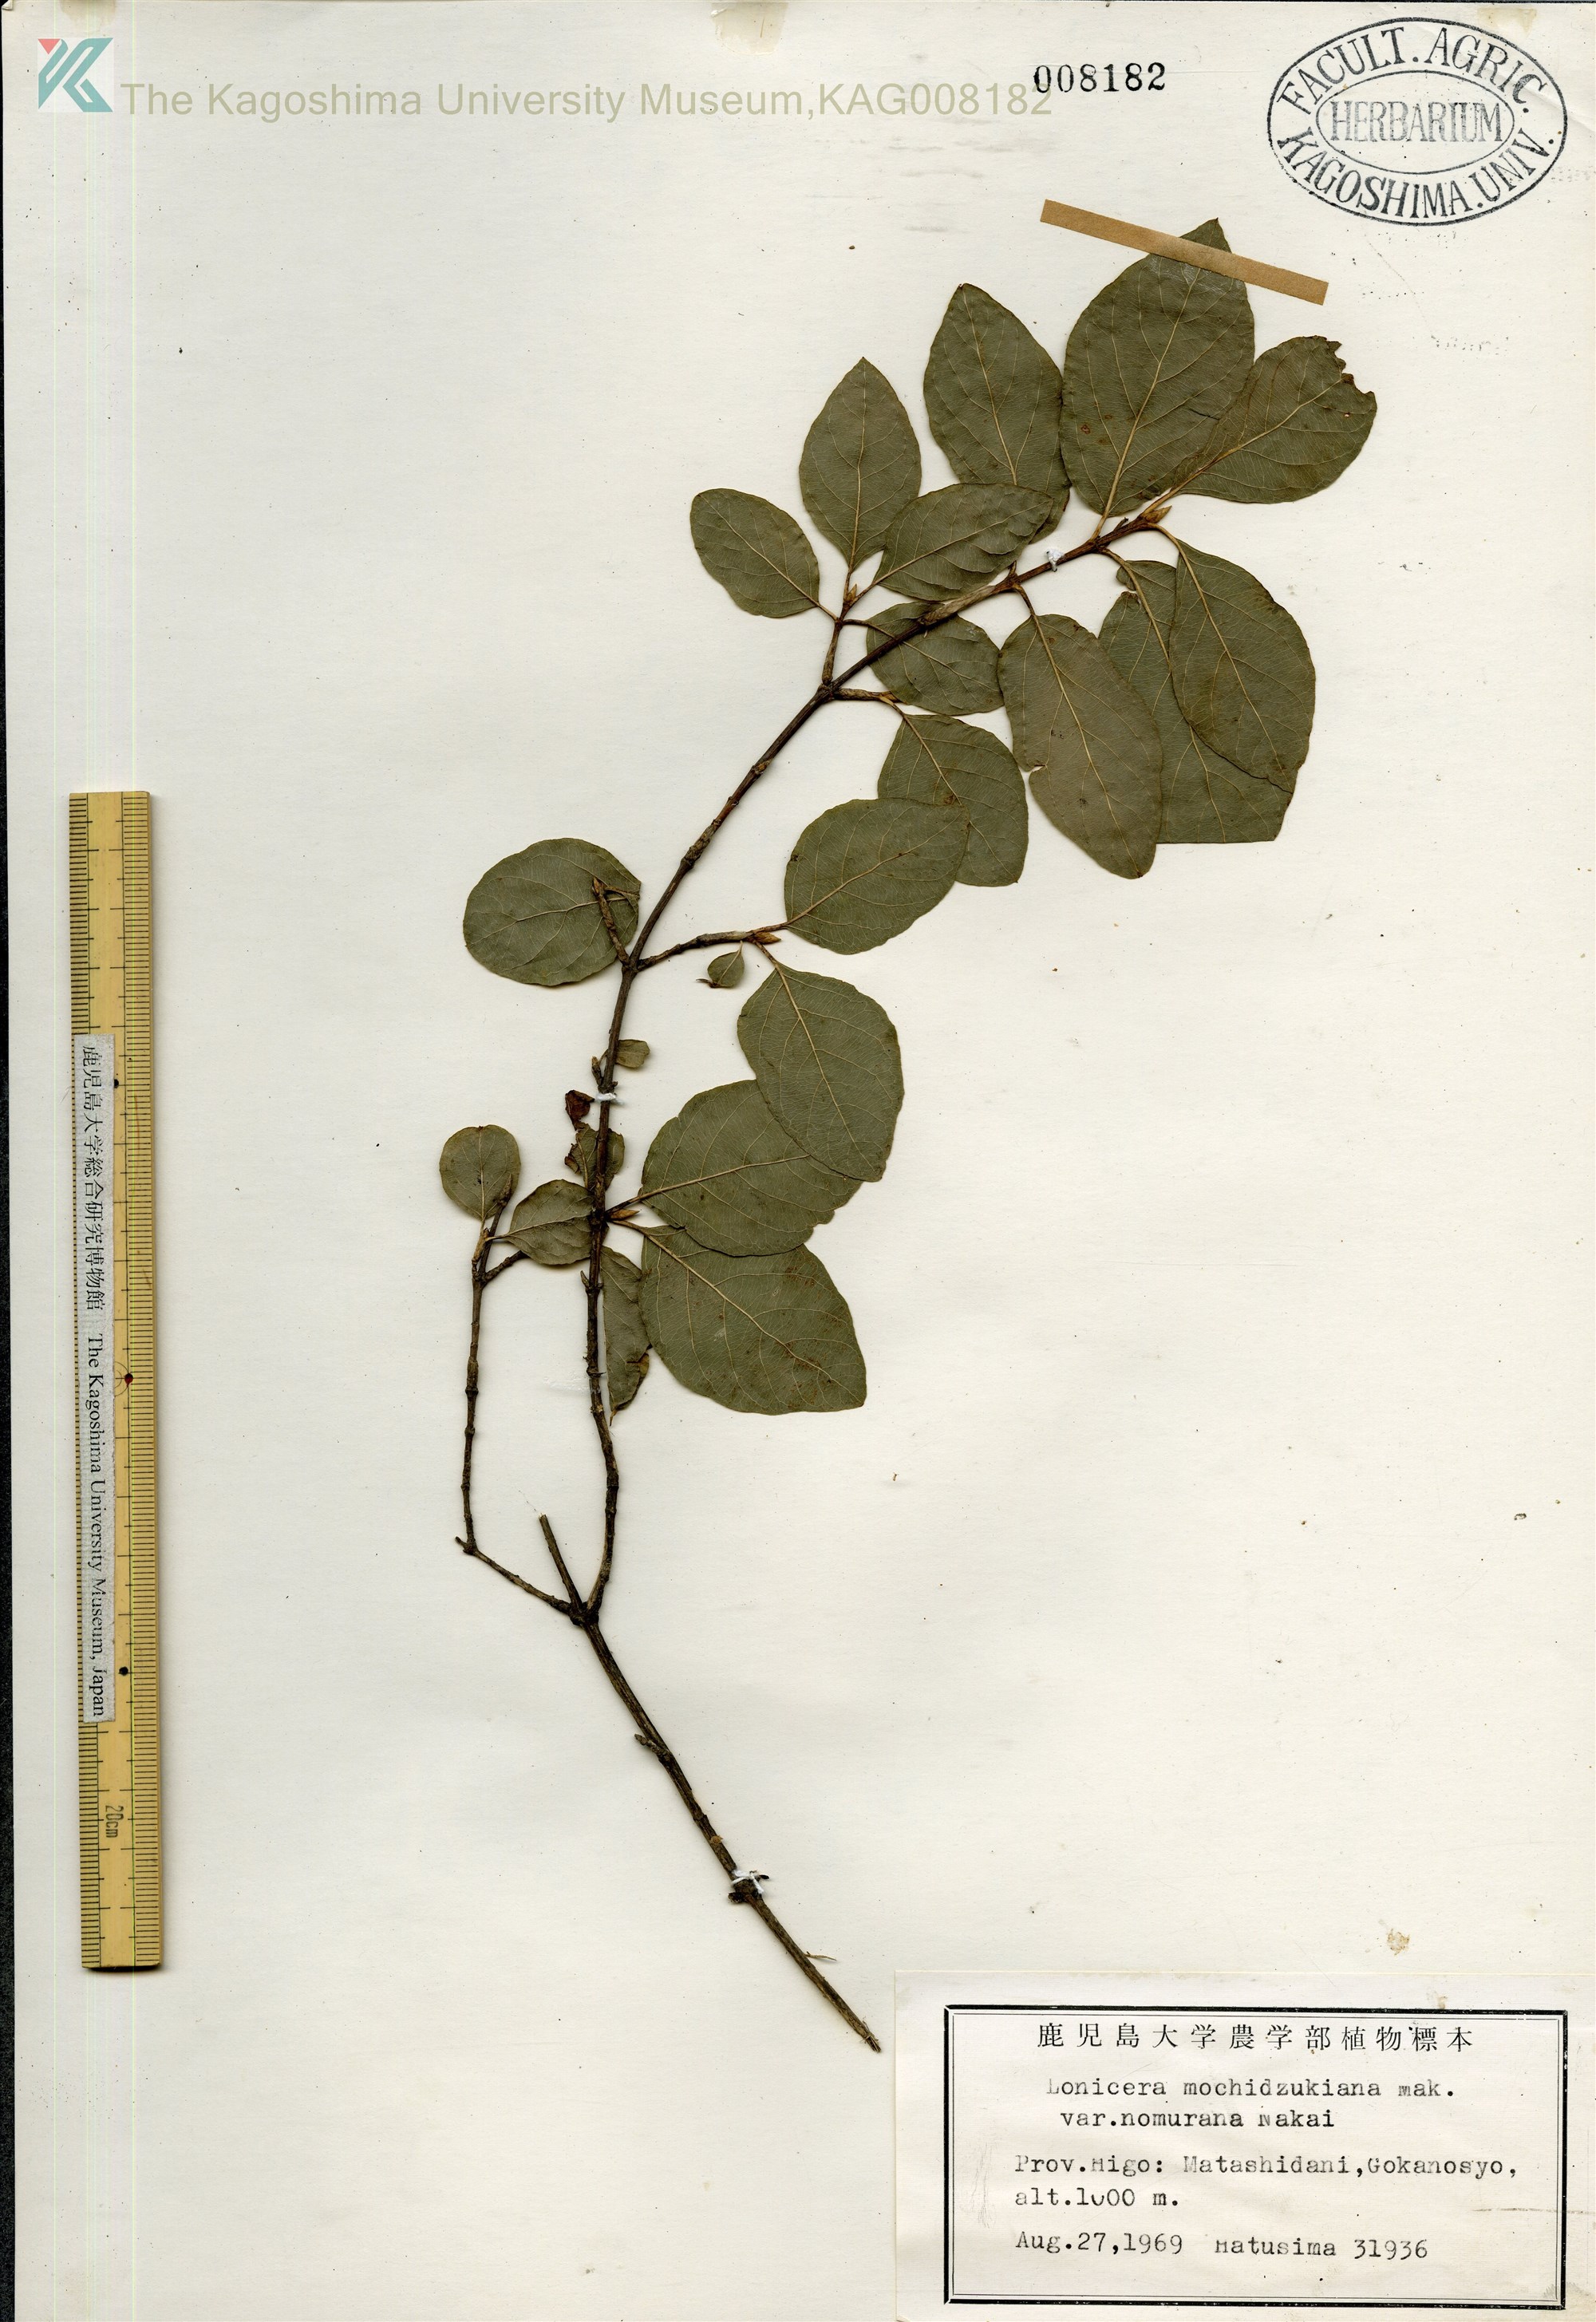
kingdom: Plantae
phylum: Tracheophyta
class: Magnoliopsida
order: Dipsacales
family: Caprifoliaceae
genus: Lonicera
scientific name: Lonicera subhispida
